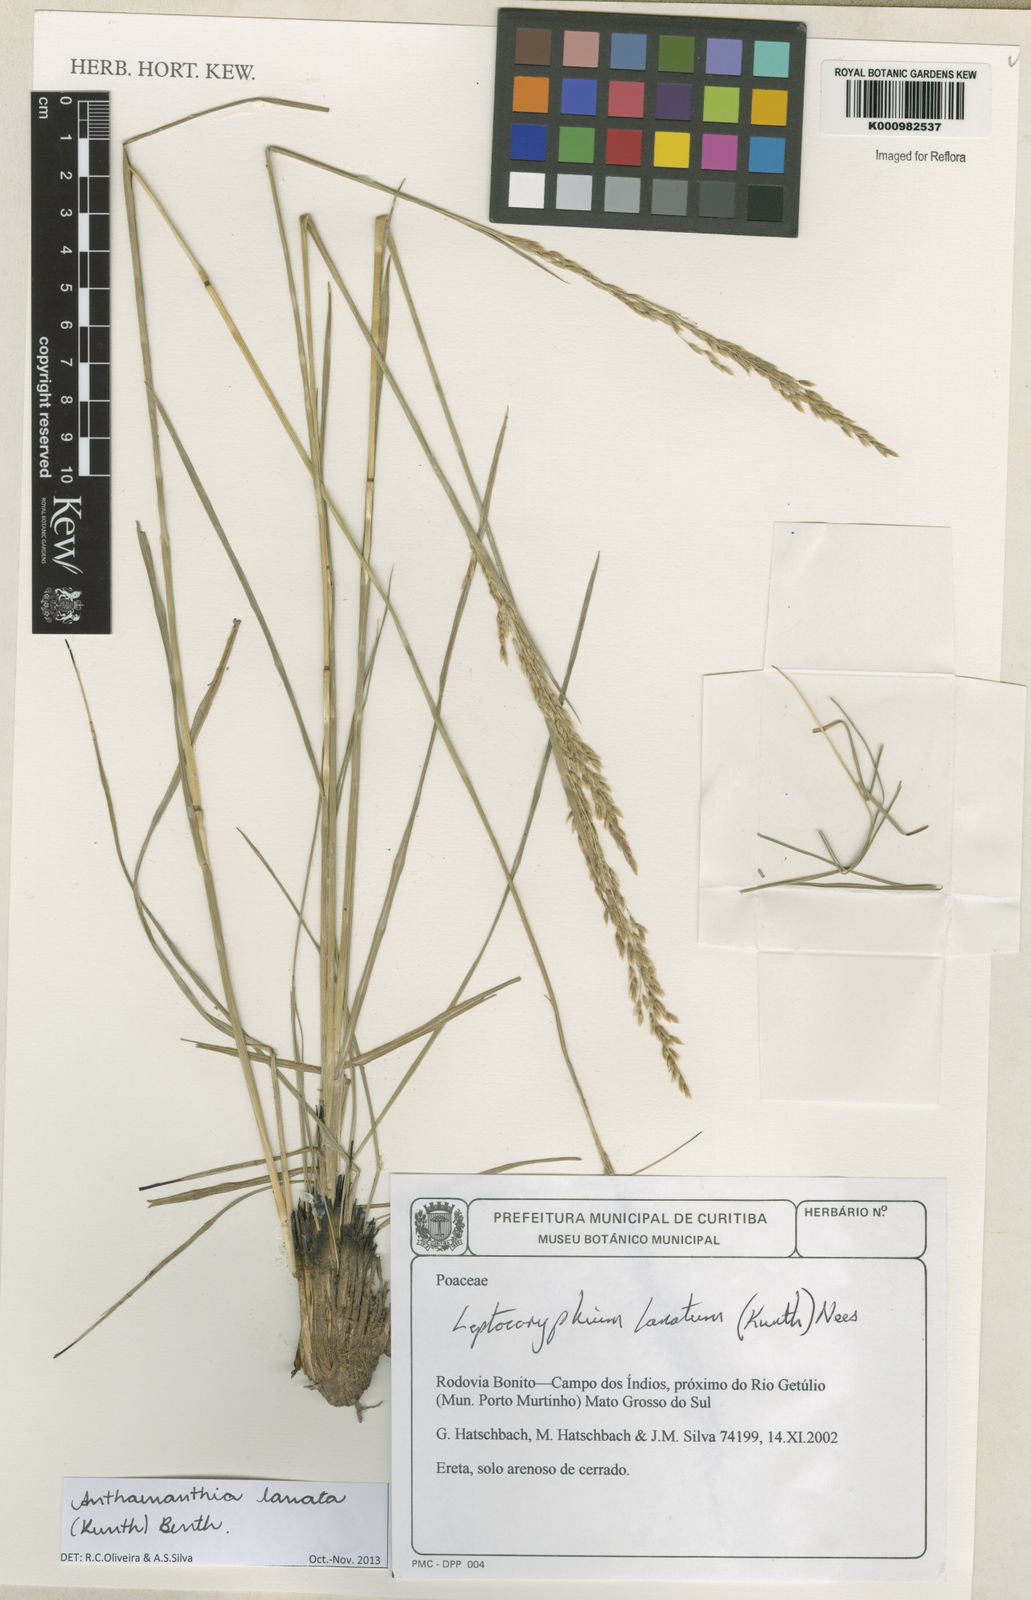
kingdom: Plantae
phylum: Tracheophyta
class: Liliopsida
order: Poales
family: Poaceae
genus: Anthenantia
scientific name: Anthenantia lanata
